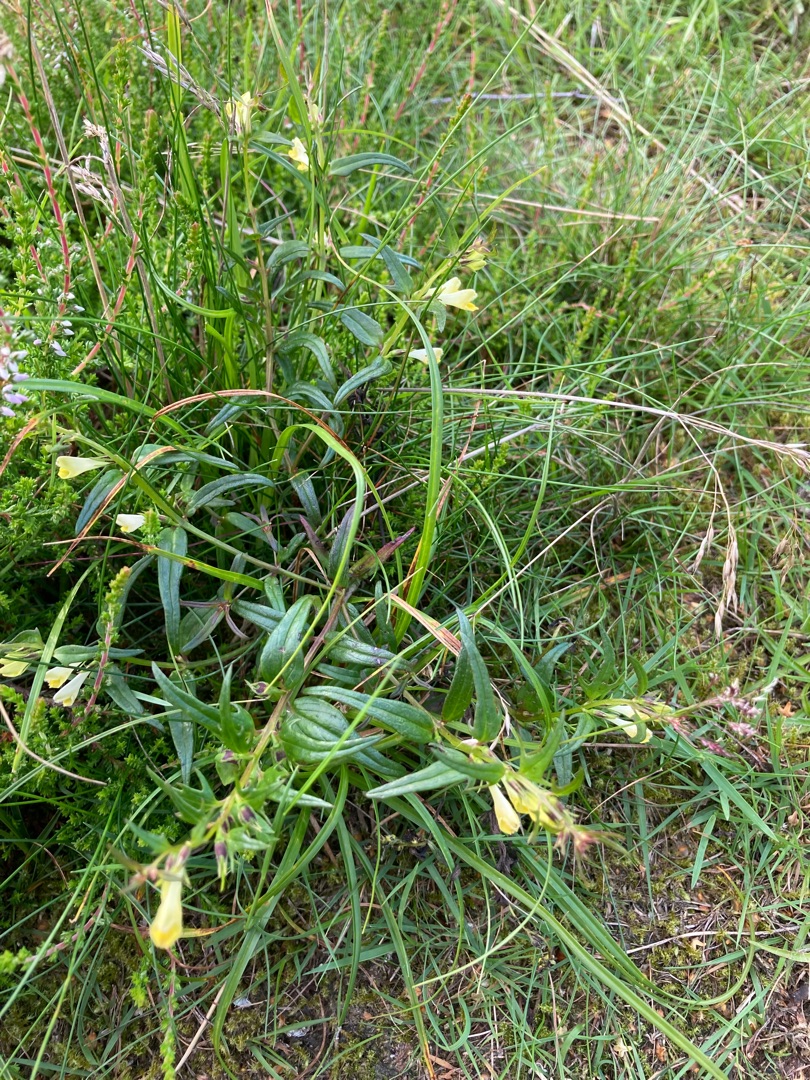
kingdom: Plantae
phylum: Tracheophyta
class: Magnoliopsida
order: Lamiales
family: Orobanchaceae
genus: Melampyrum
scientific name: Melampyrum pratense
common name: Almindelig kohvede
